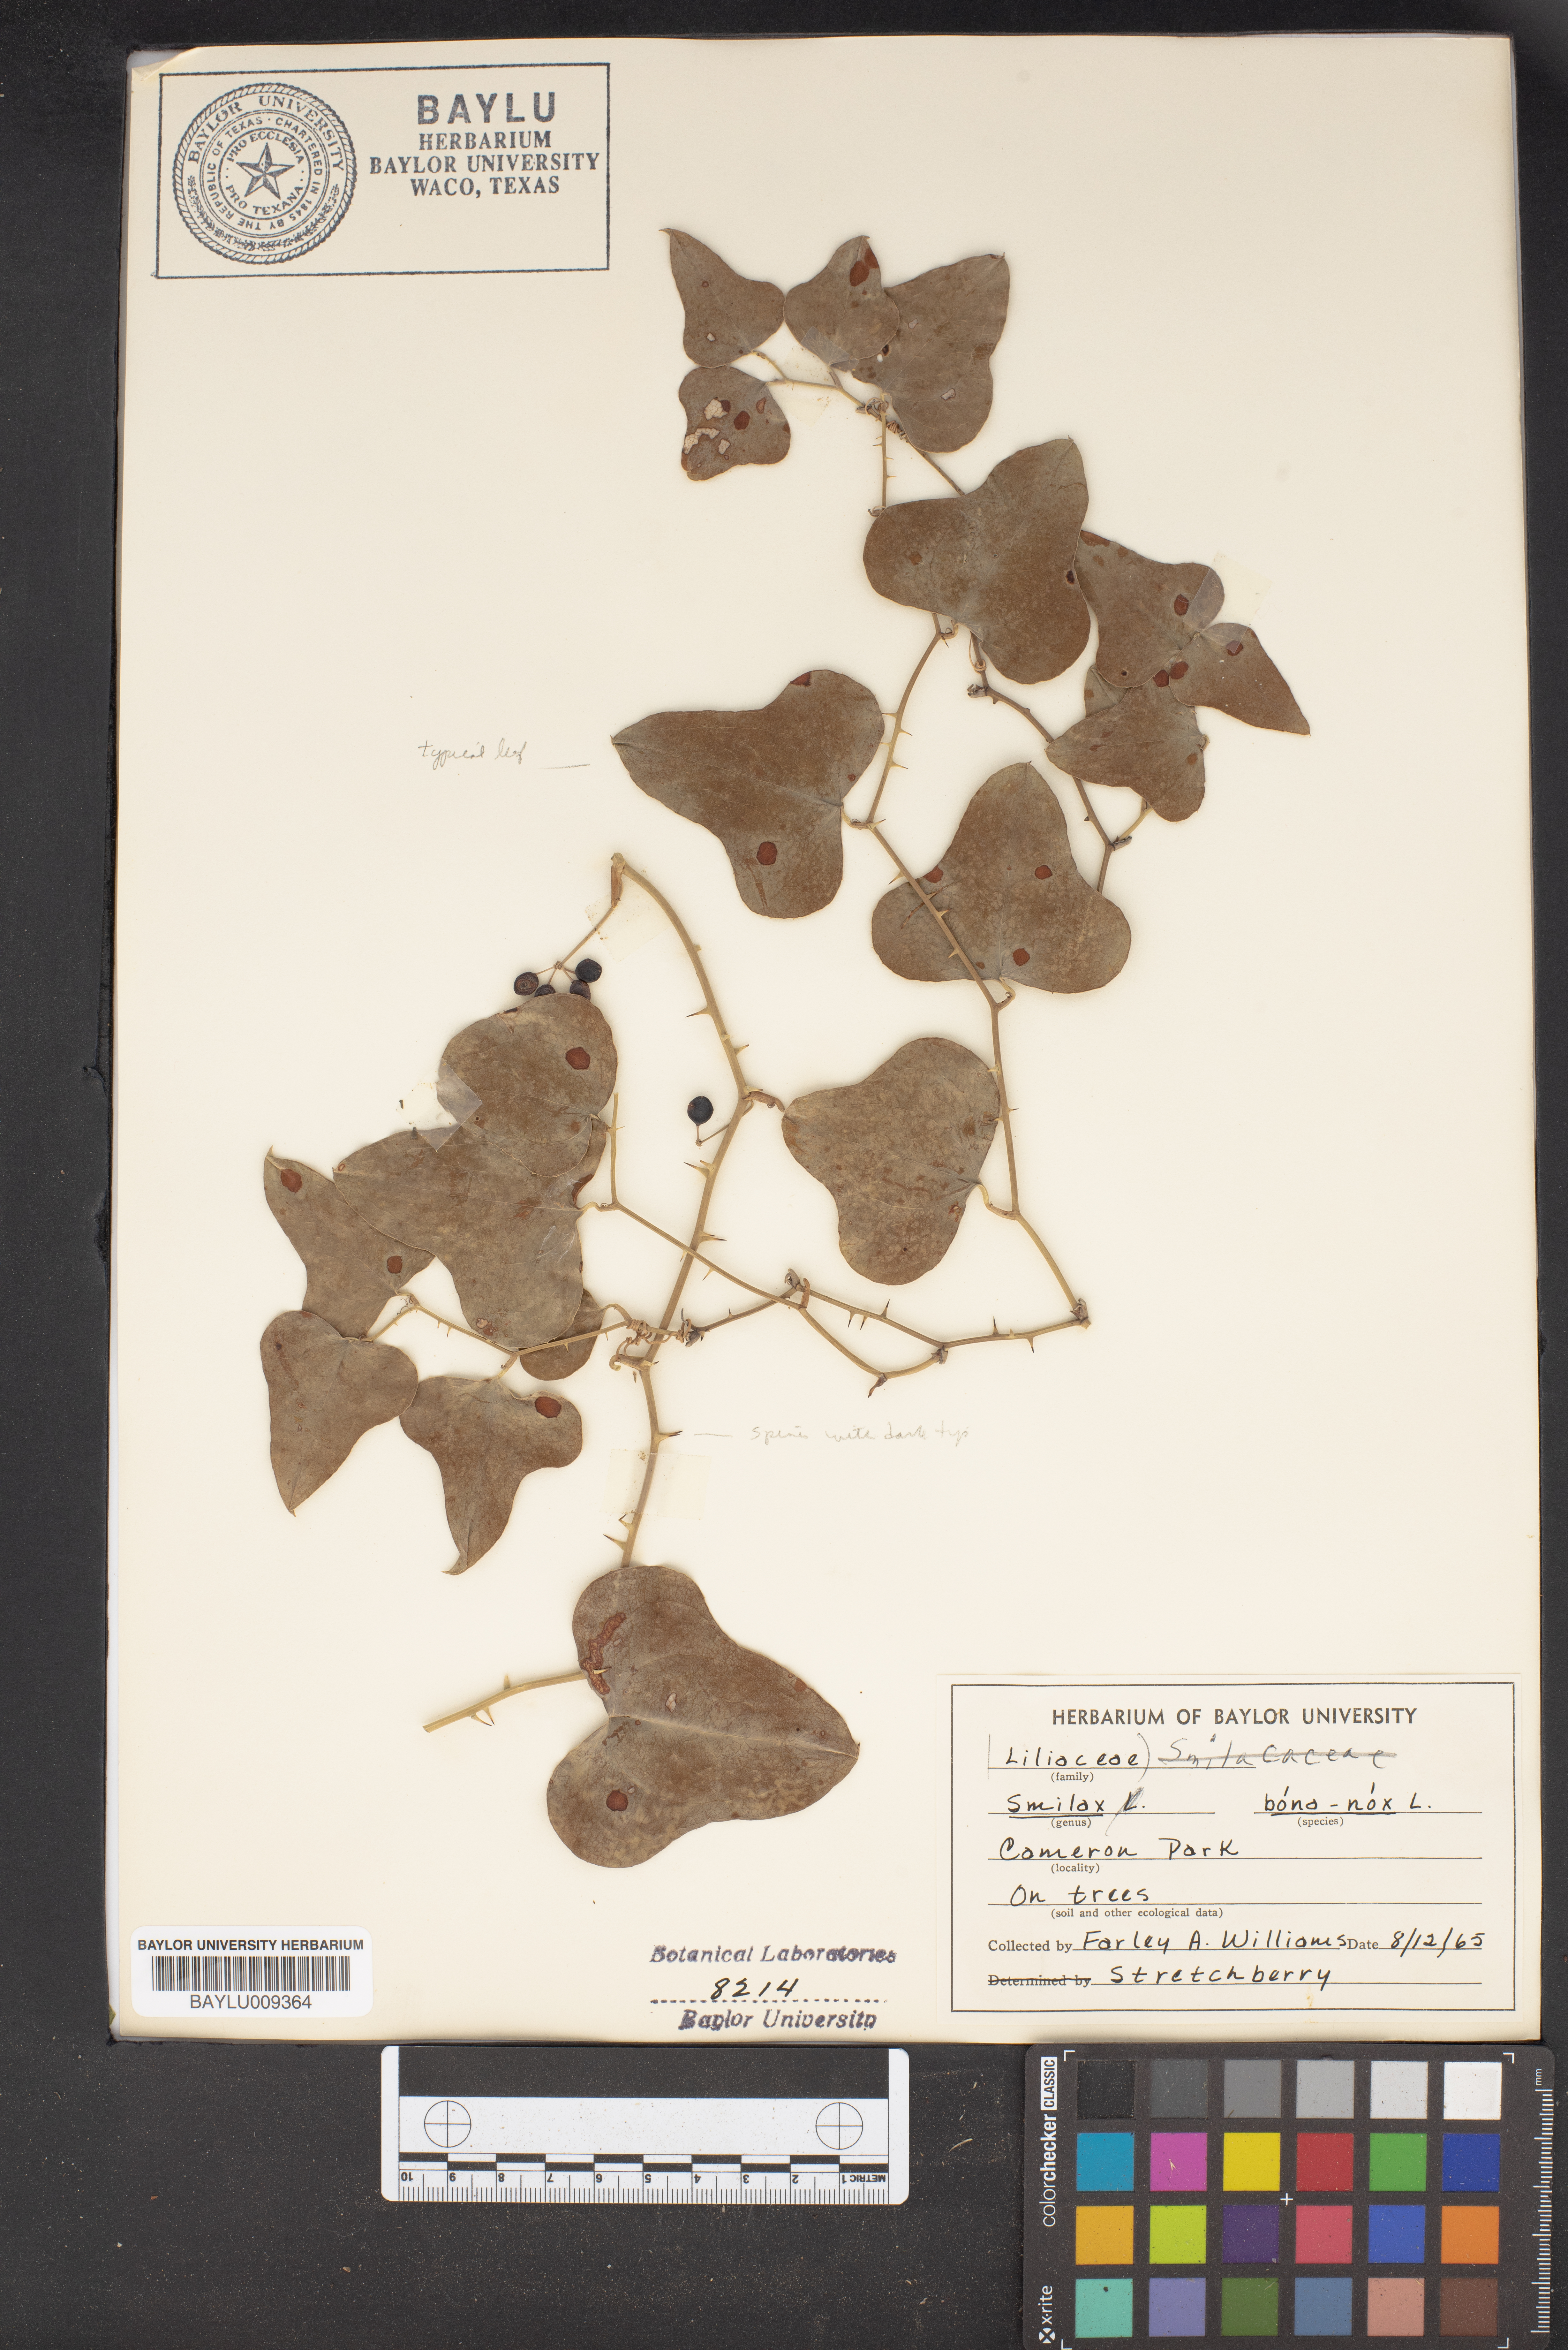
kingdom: Plantae
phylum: Tracheophyta
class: Liliopsida
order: Liliales
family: Smilacaceae
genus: Smilax
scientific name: Smilax bona-nox
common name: Catbrier
